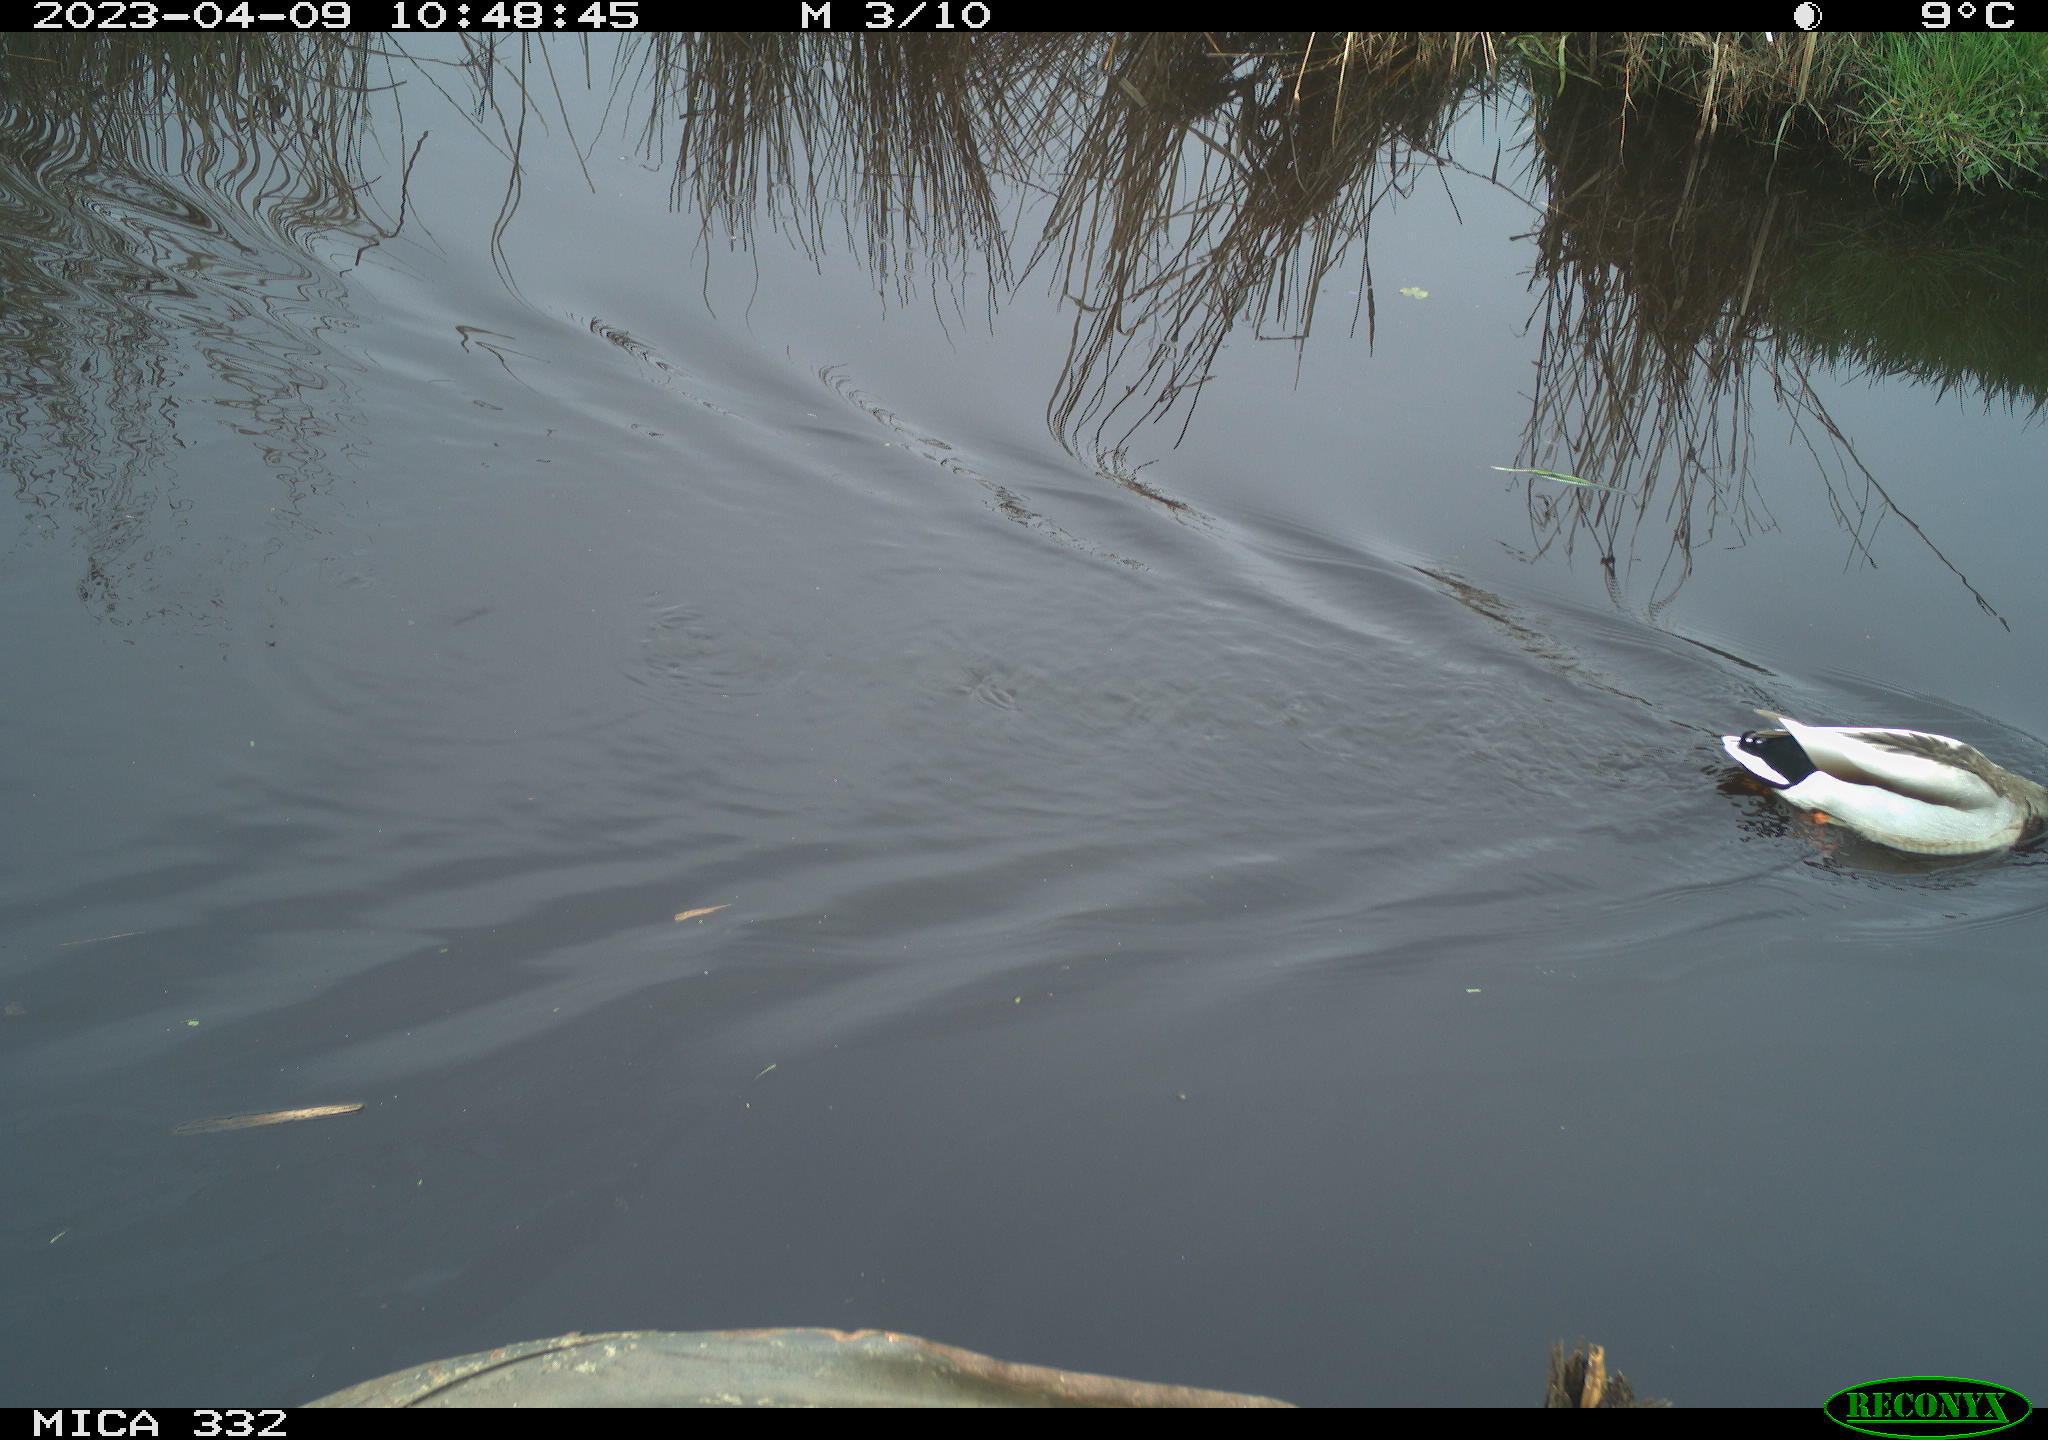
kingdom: Animalia
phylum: Chordata
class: Aves
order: Anseriformes
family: Anatidae
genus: Anas
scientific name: Anas
